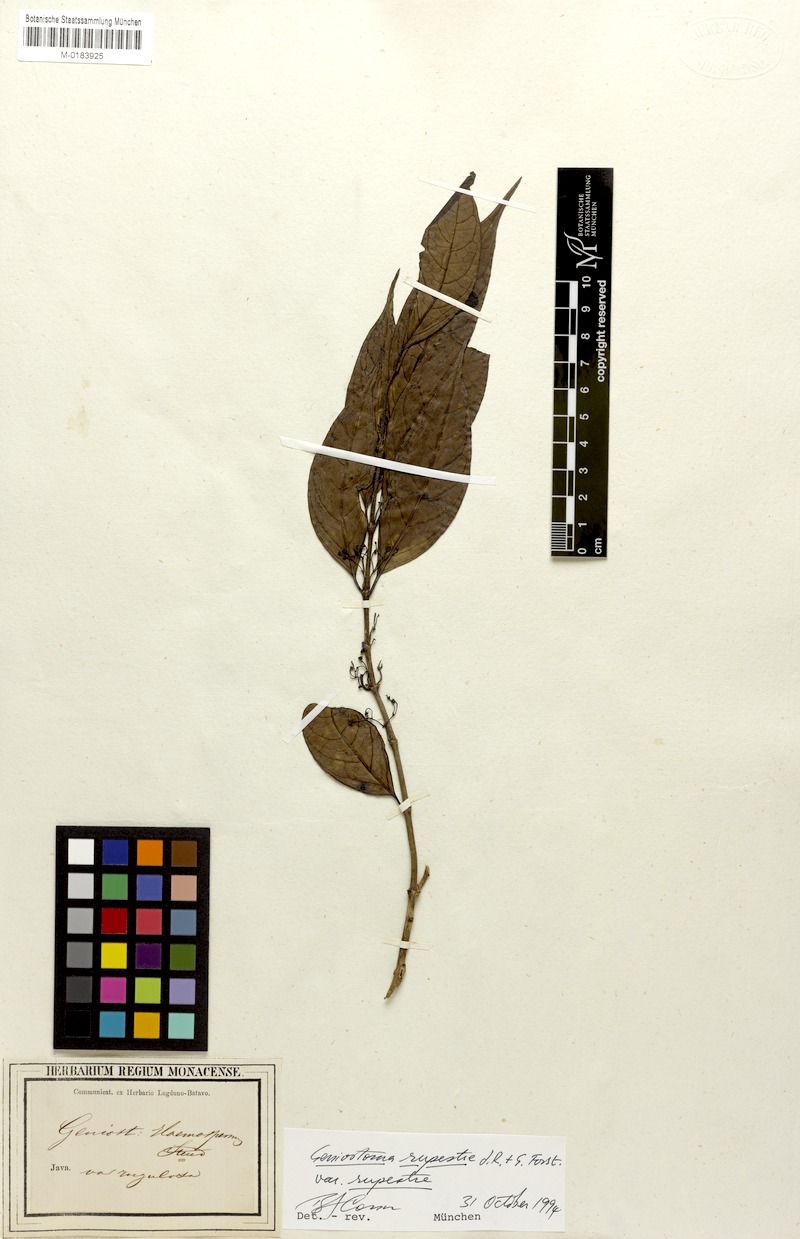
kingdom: Plantae
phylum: Tracheophyta
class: Magnoliopsida
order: Gentianales
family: Loganiaceae
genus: Geniostoma
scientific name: Geniostoma rupestre
